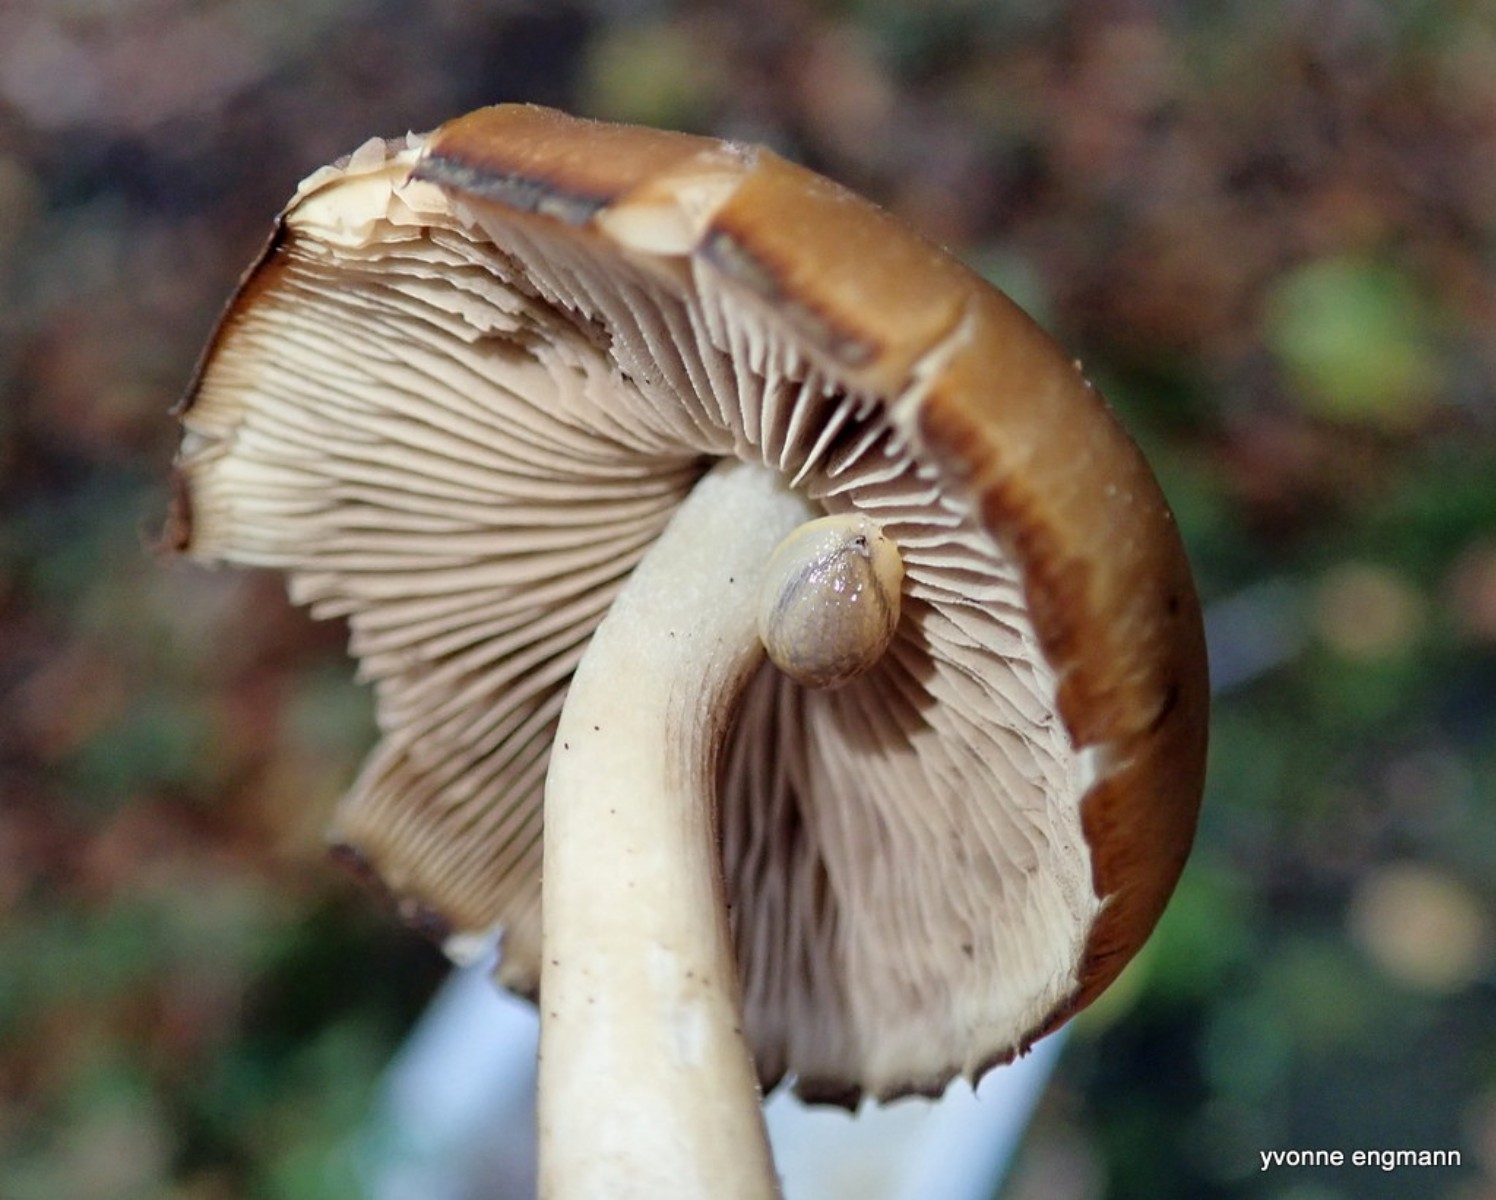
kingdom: Fungi
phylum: Basidiomycota
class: Agaricomycetes
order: Agaricales
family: Psathyrellaceae
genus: Psathyrella
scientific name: Psathyrella piluliformis
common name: lysstokket mørkhat
